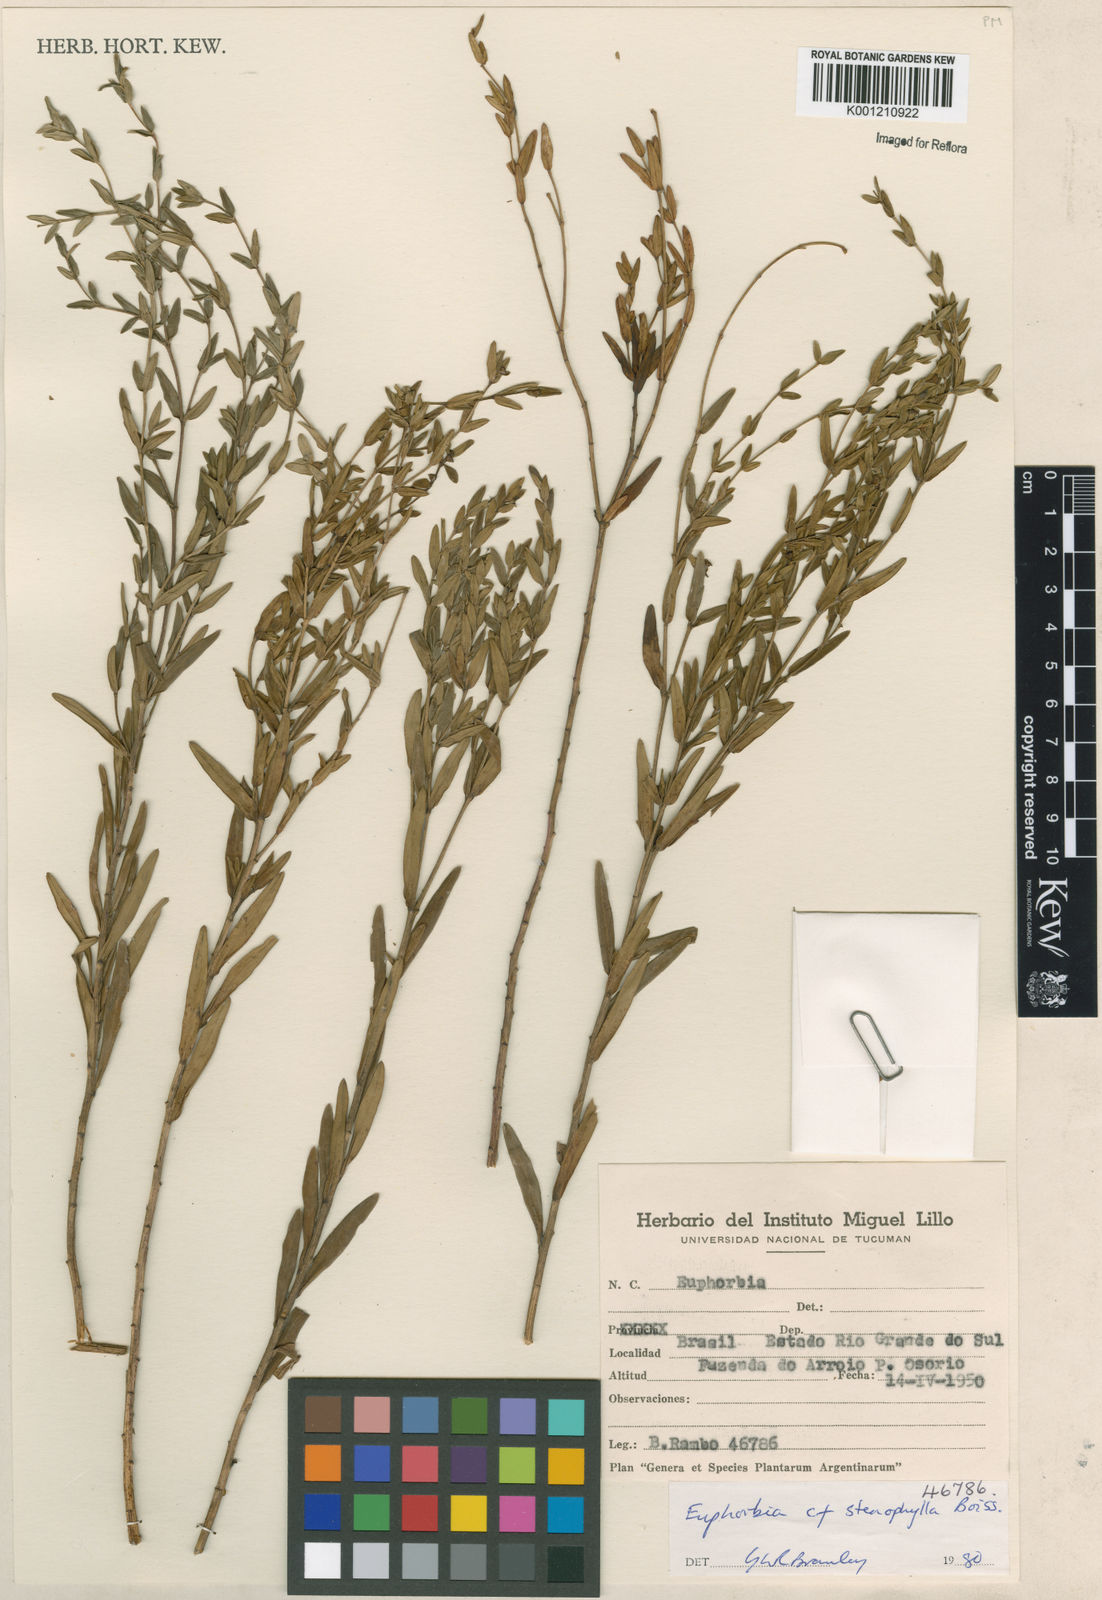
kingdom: Plantae
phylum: Tracheophyta
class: Magnoliopsida
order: Malpighiales
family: Euphorbiaceae
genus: Euphorbia
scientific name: Euphorbia stenophylla
